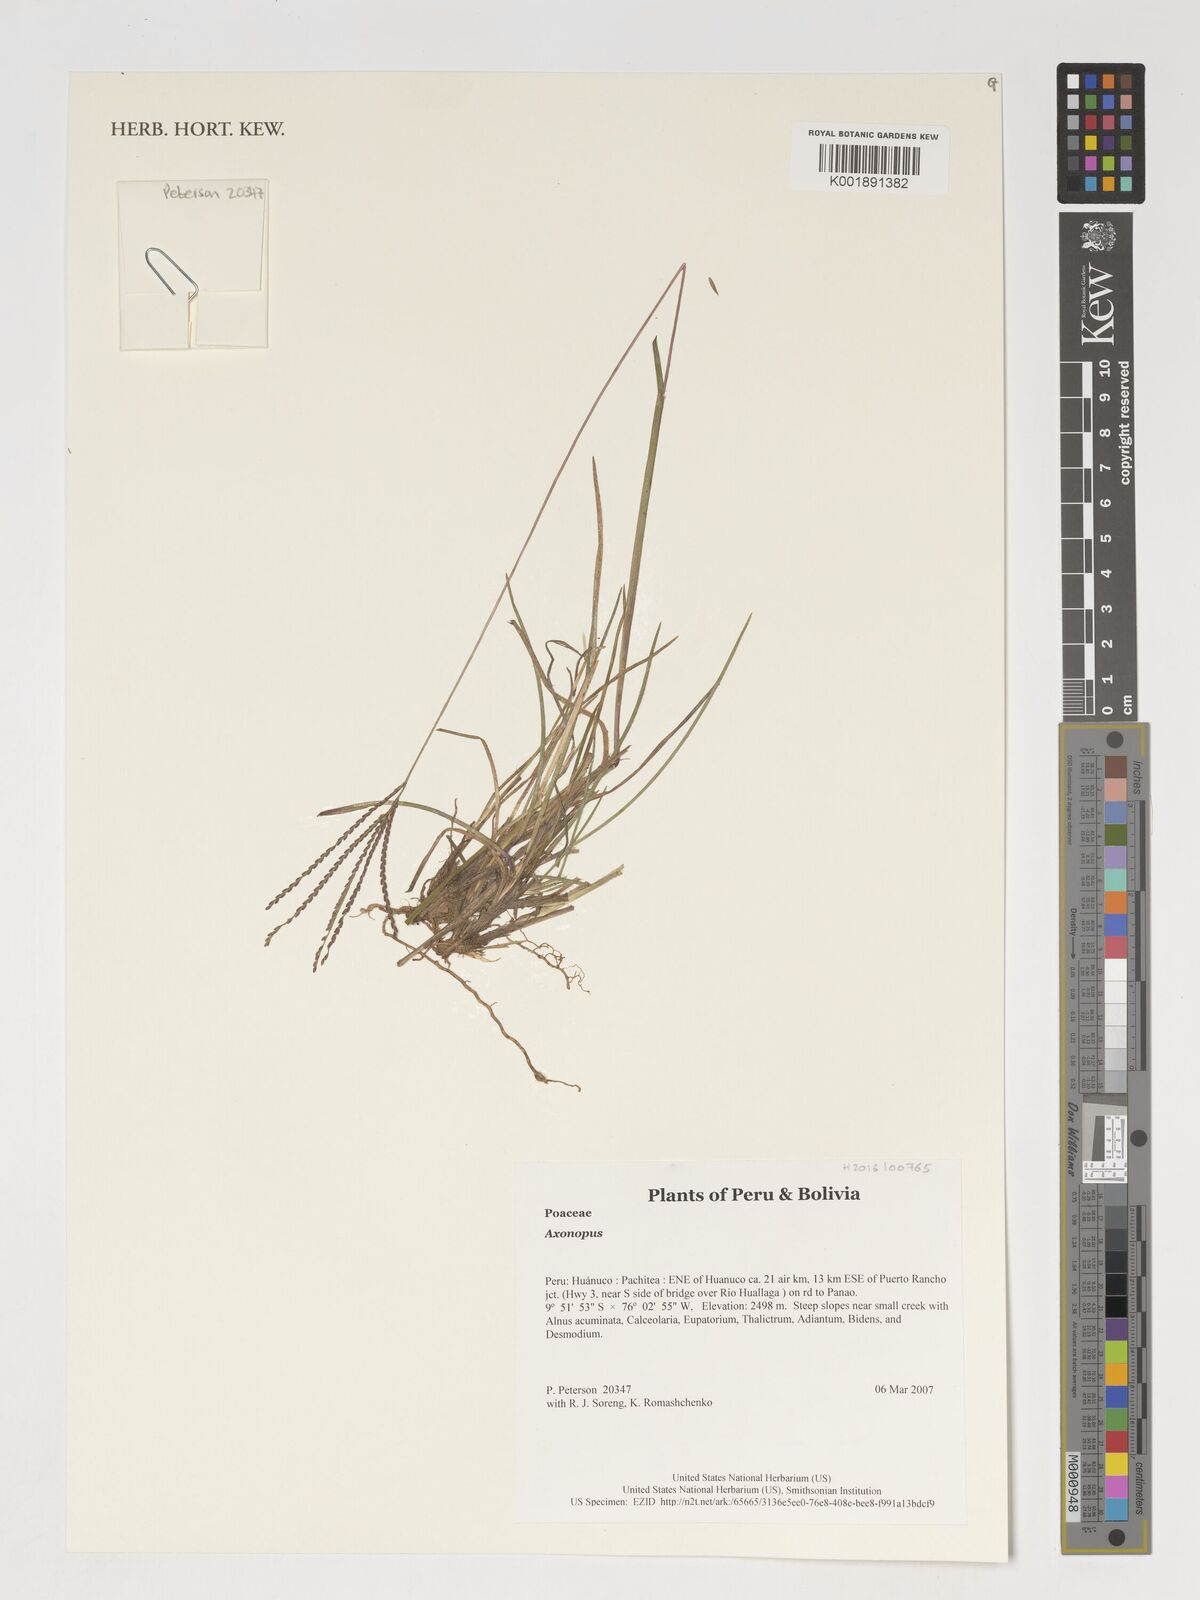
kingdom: Plantae
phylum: Tracheophyta
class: Liliopsida
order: Poales
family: Poaceae
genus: Axonopus
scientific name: Axonopus
